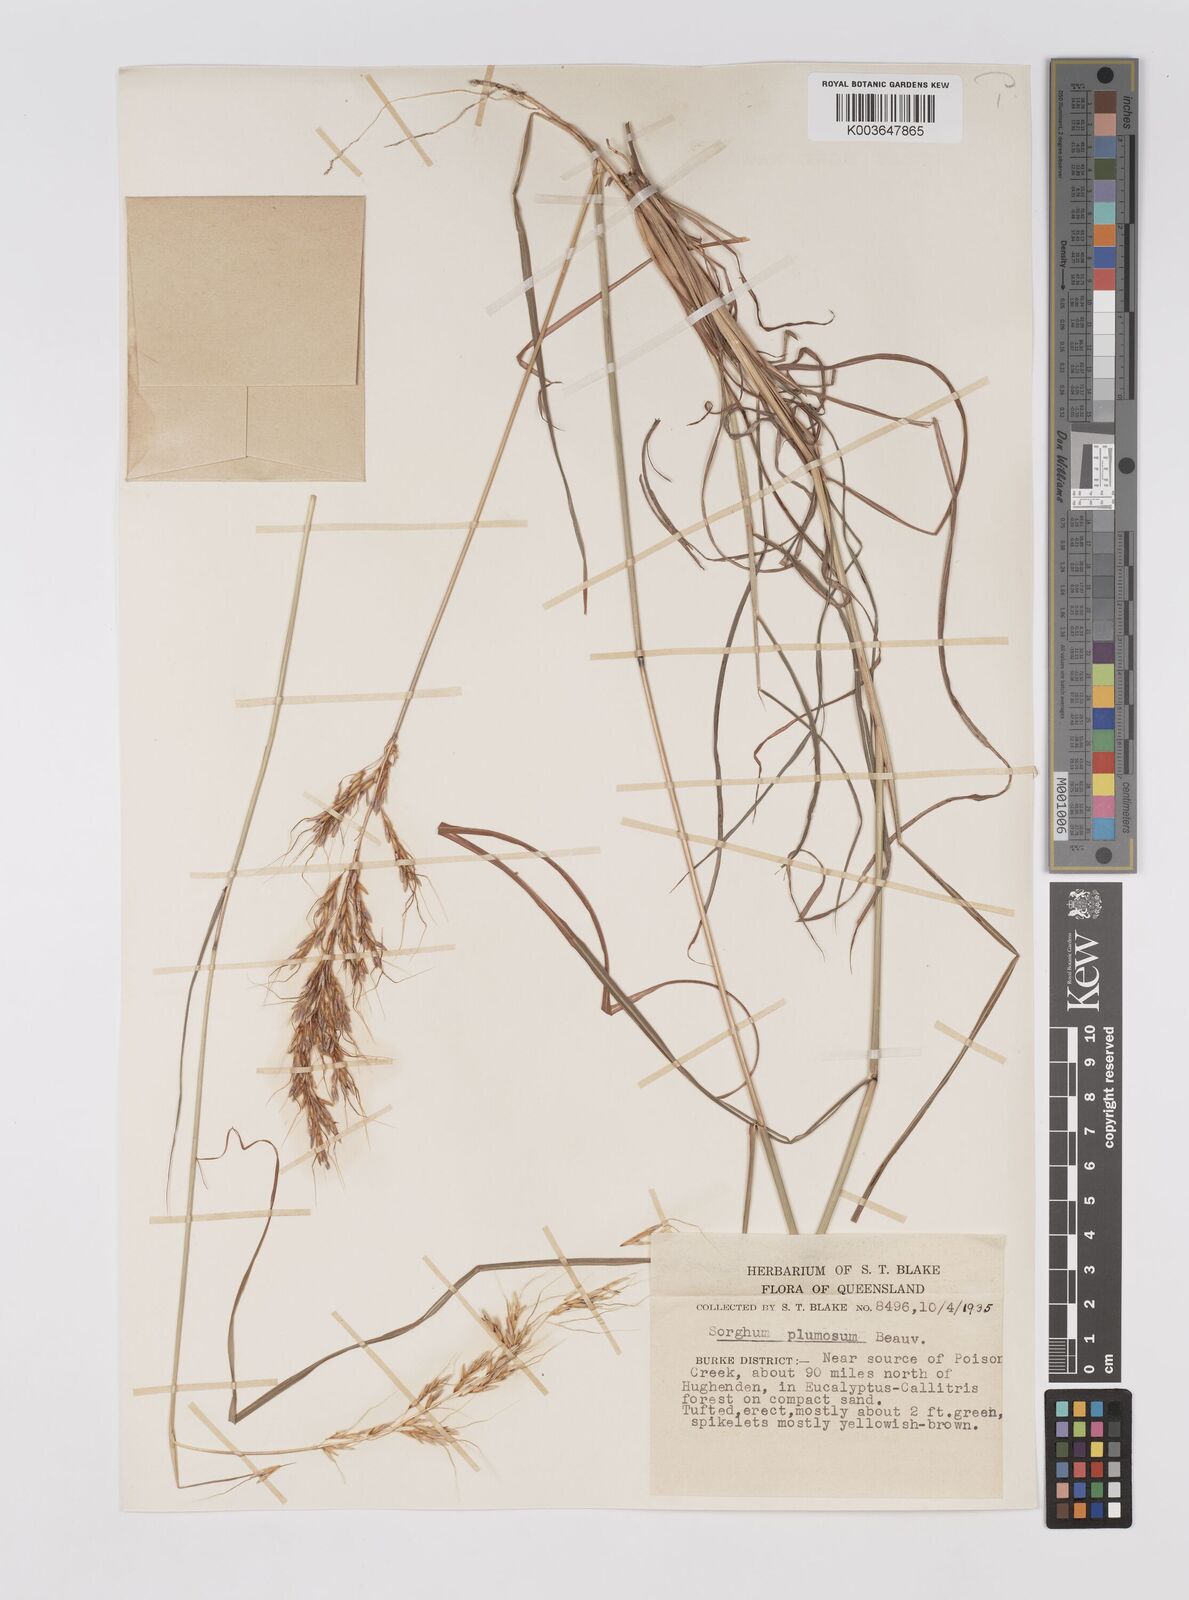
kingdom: Plantae
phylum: Tracheophyta
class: Liliopsida
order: Poales
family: Poaceae
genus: Sarga
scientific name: Sarga plumosa
